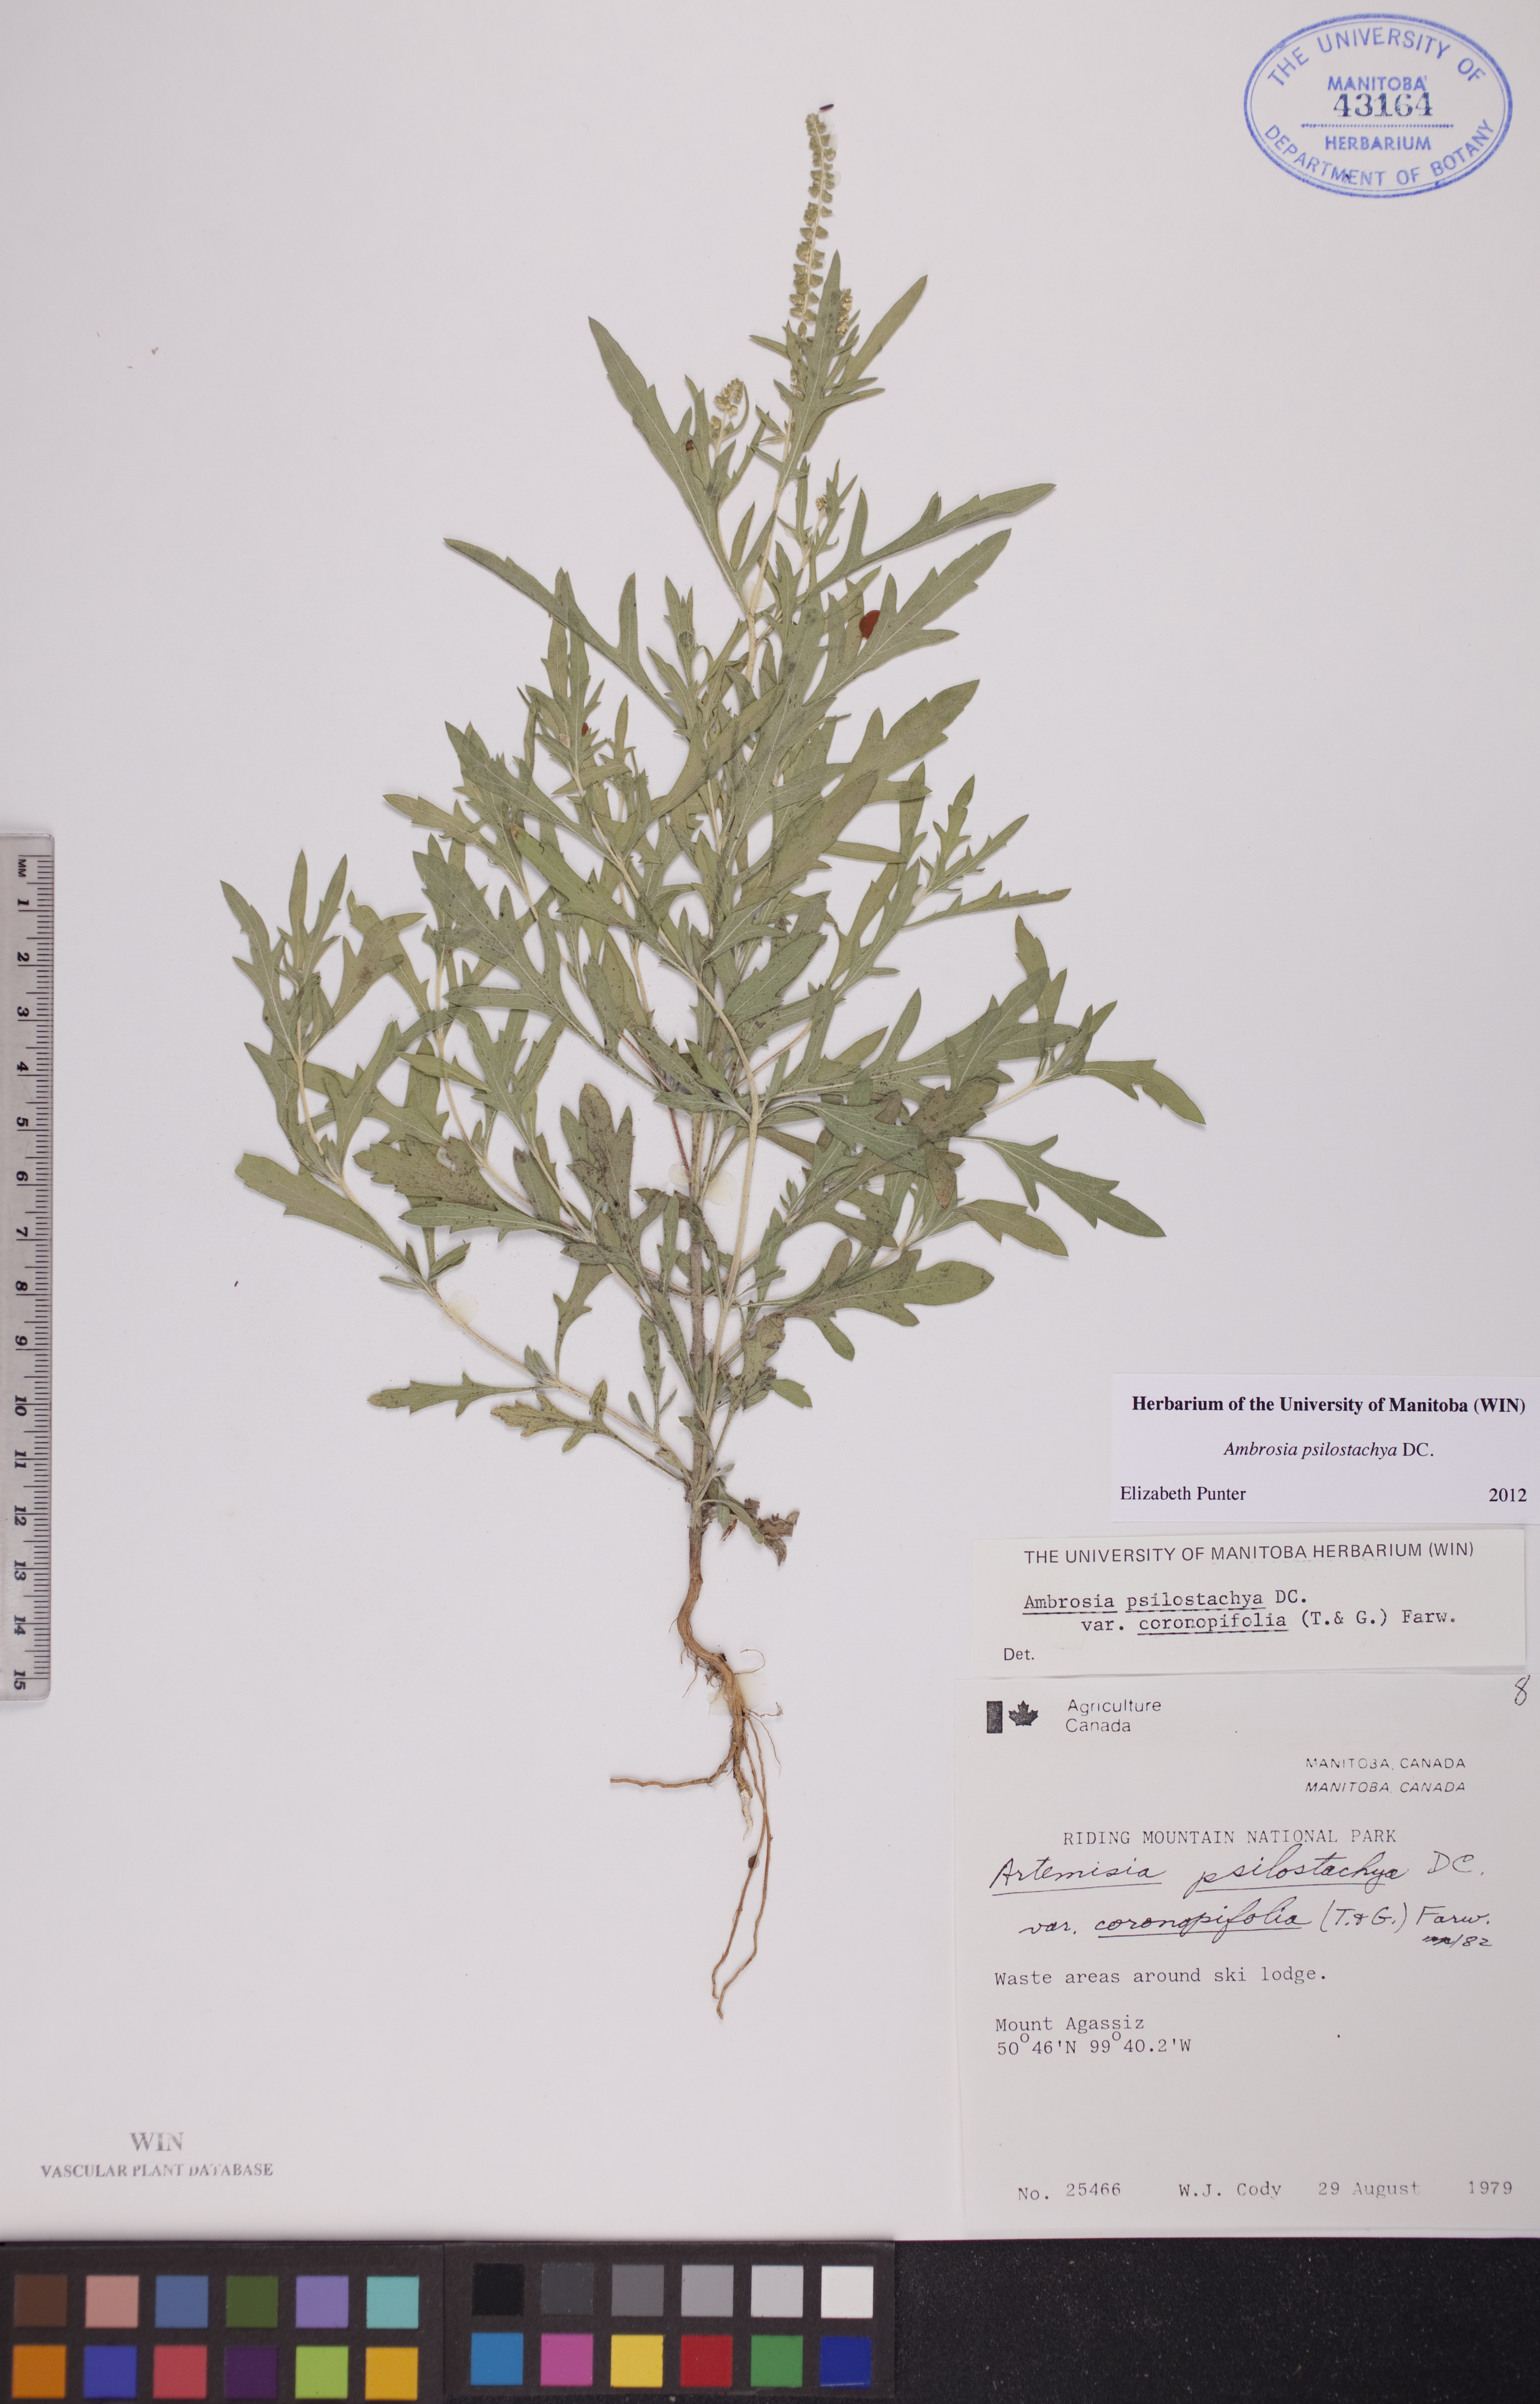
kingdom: Plantae
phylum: Tracheophyta
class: Magnoliopsida
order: Asterales
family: Asteraceae
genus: Ambrosia
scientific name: Ambrosia psilostachya
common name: Perennial ragweed
